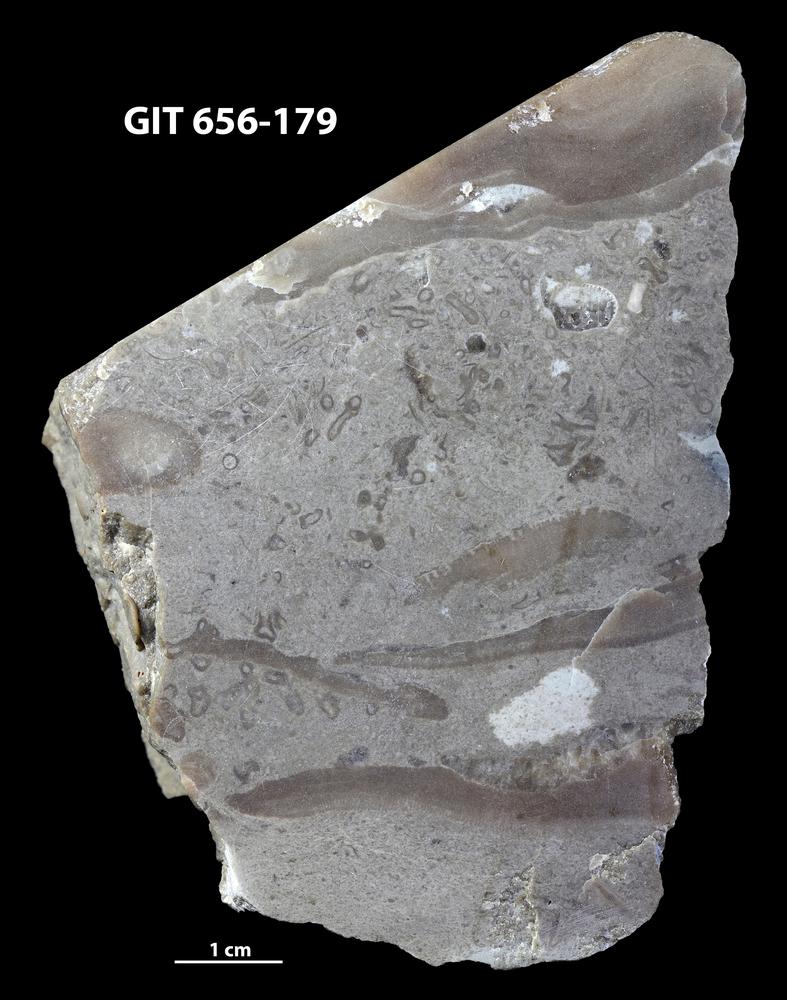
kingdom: Animalia
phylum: Porifera
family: Syringostromellidae
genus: Syringostromella
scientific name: Syringostromella
